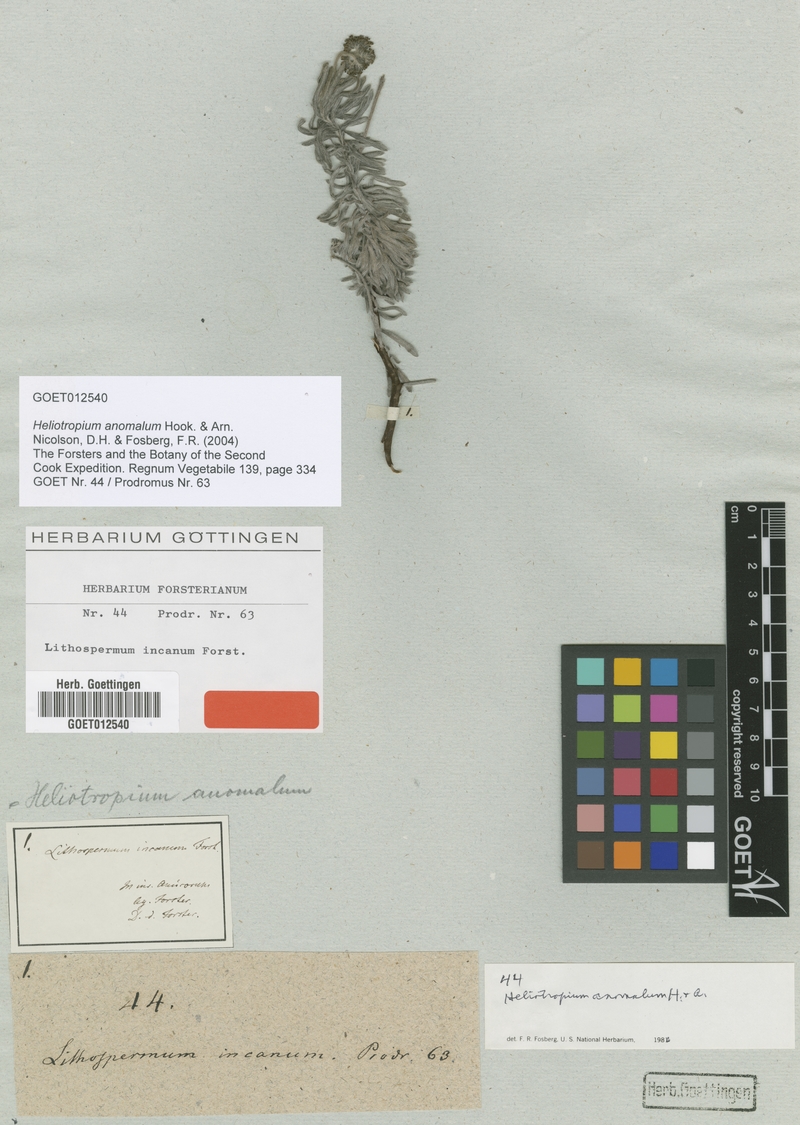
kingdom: Plantae
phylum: Tracheophyta
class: Magnoliopsida
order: Boraginales
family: Heliotropiaceae
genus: Heliotropium
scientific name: Heliotropium anomalum
